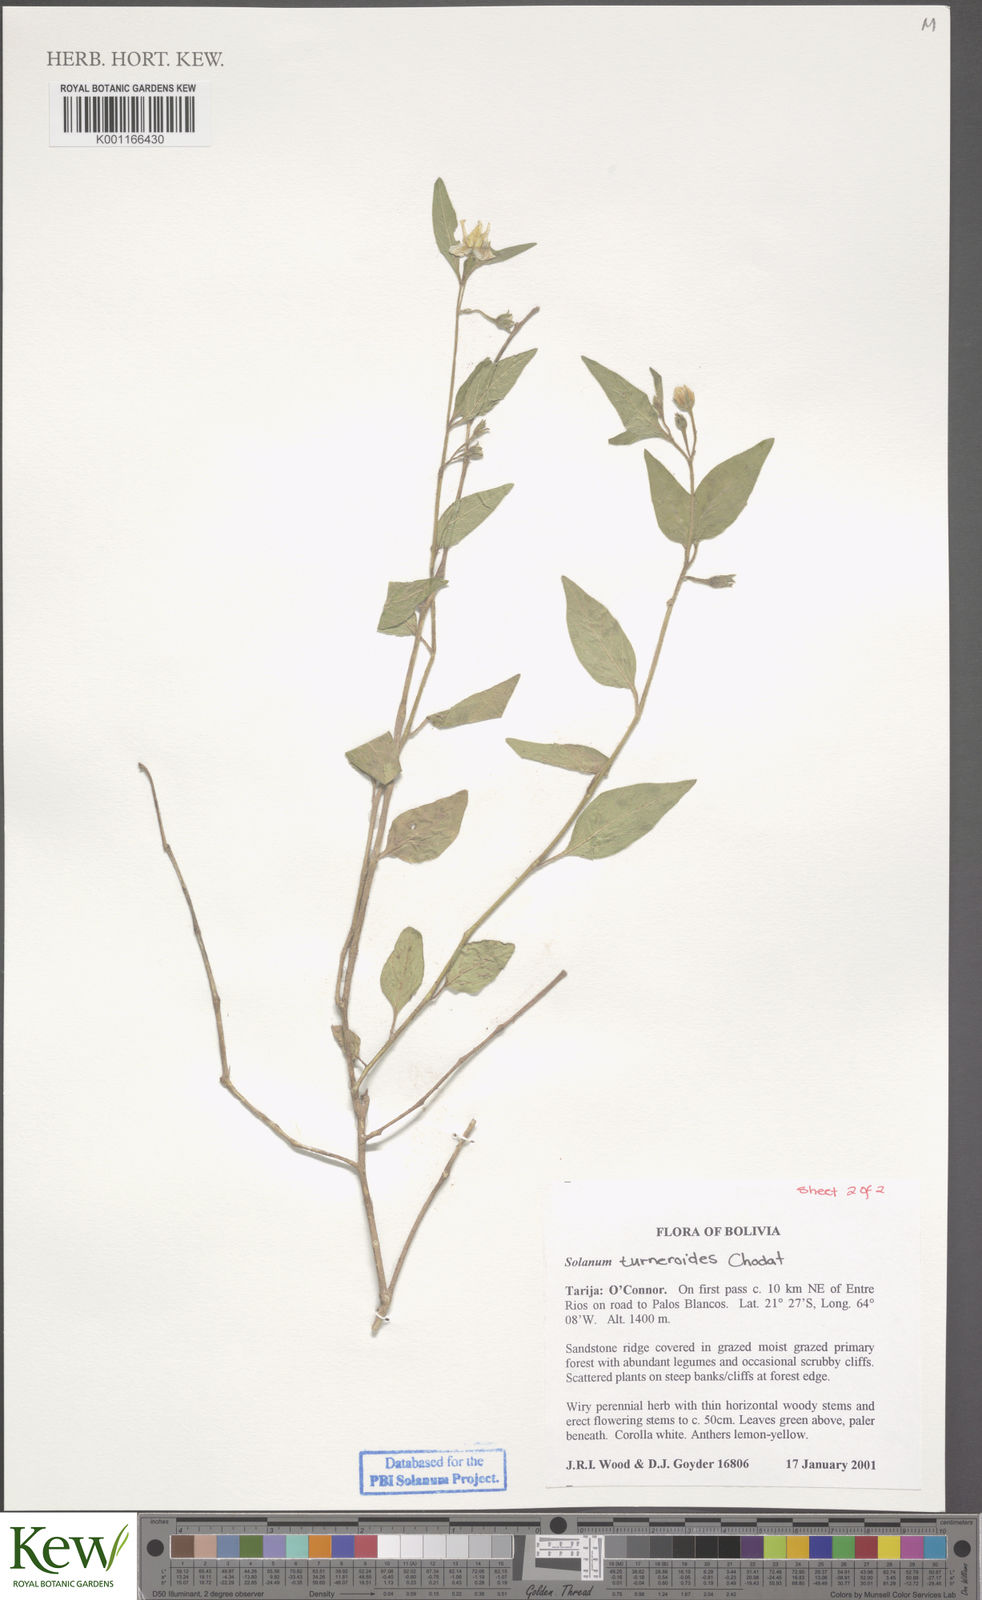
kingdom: Plantae
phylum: Tracheophyta
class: Magnoliopsida
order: Solanales
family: Solanaceae
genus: Solanum
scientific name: Solanum turneroides
